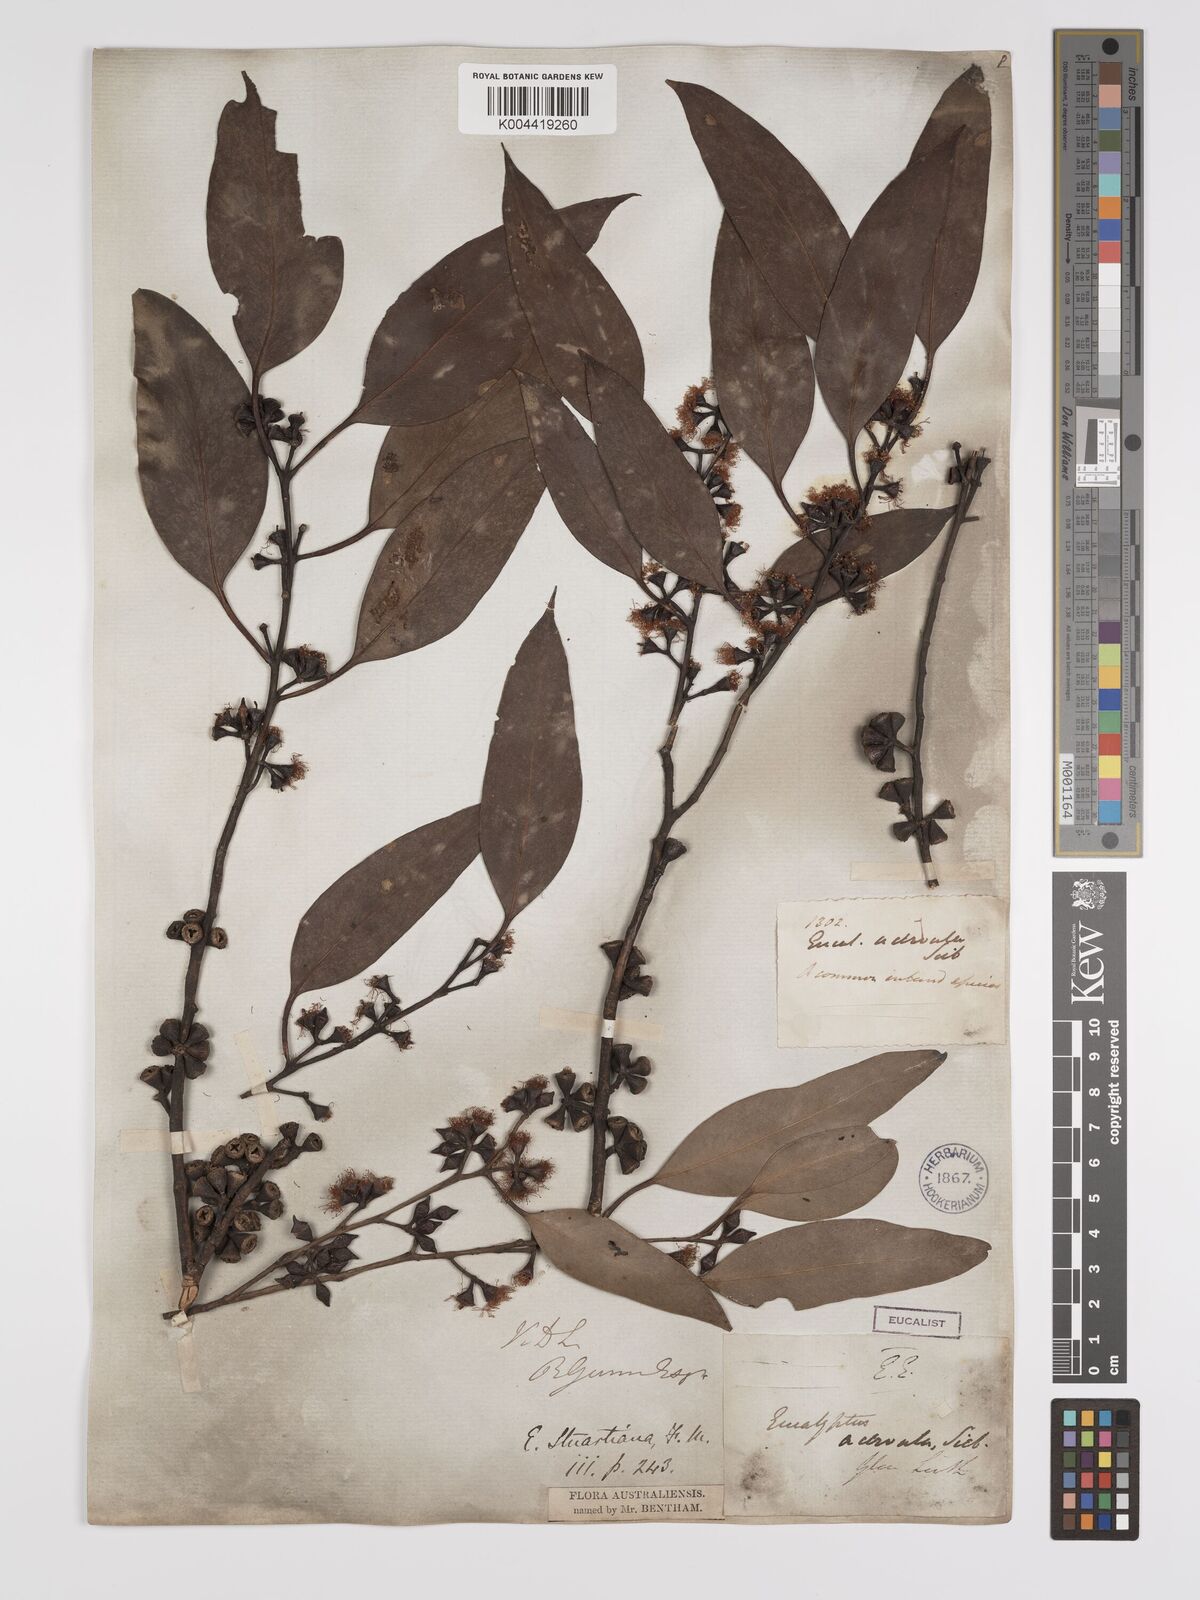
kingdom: Plantae
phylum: Tracheophyta
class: Magnoliopsida
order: Myrtales
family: Myrtaceae
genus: Eucalyptus
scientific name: Eucalyptus ovata
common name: Black-gum
